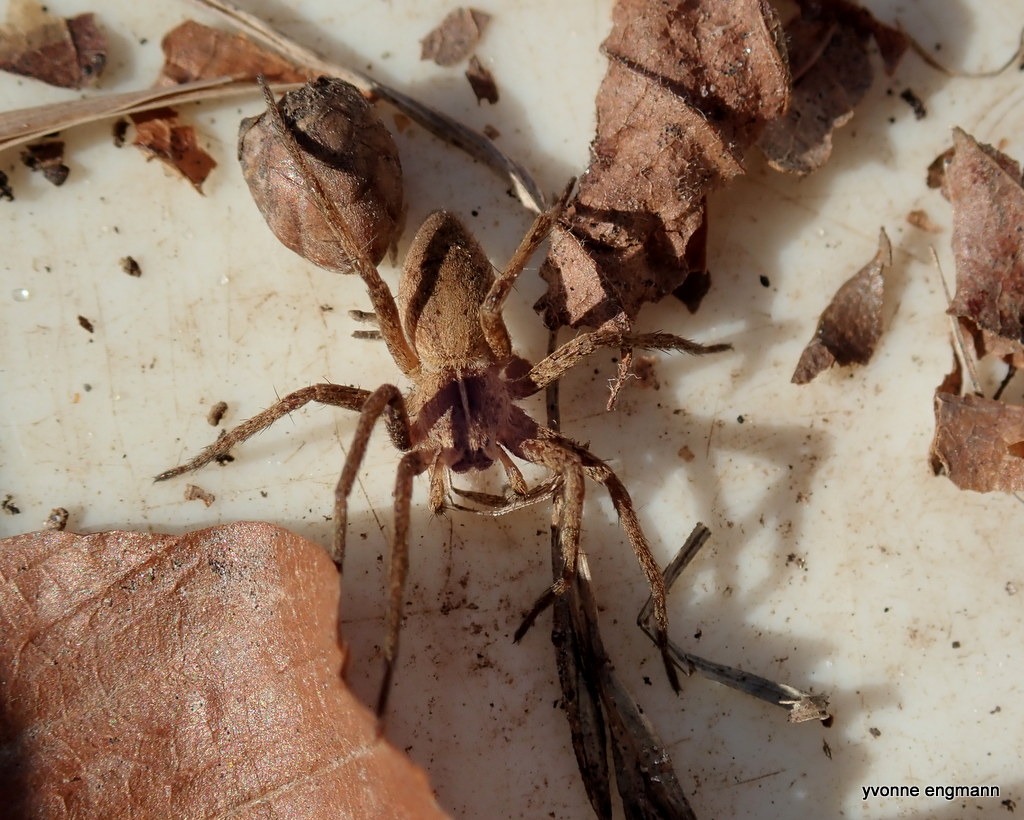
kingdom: Animalia
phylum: Arthropoda
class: Arachnida
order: Araneae
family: Pisauridae
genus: Pisaura
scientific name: Pisaura mirabilis
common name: Almindelig rovedderkop
